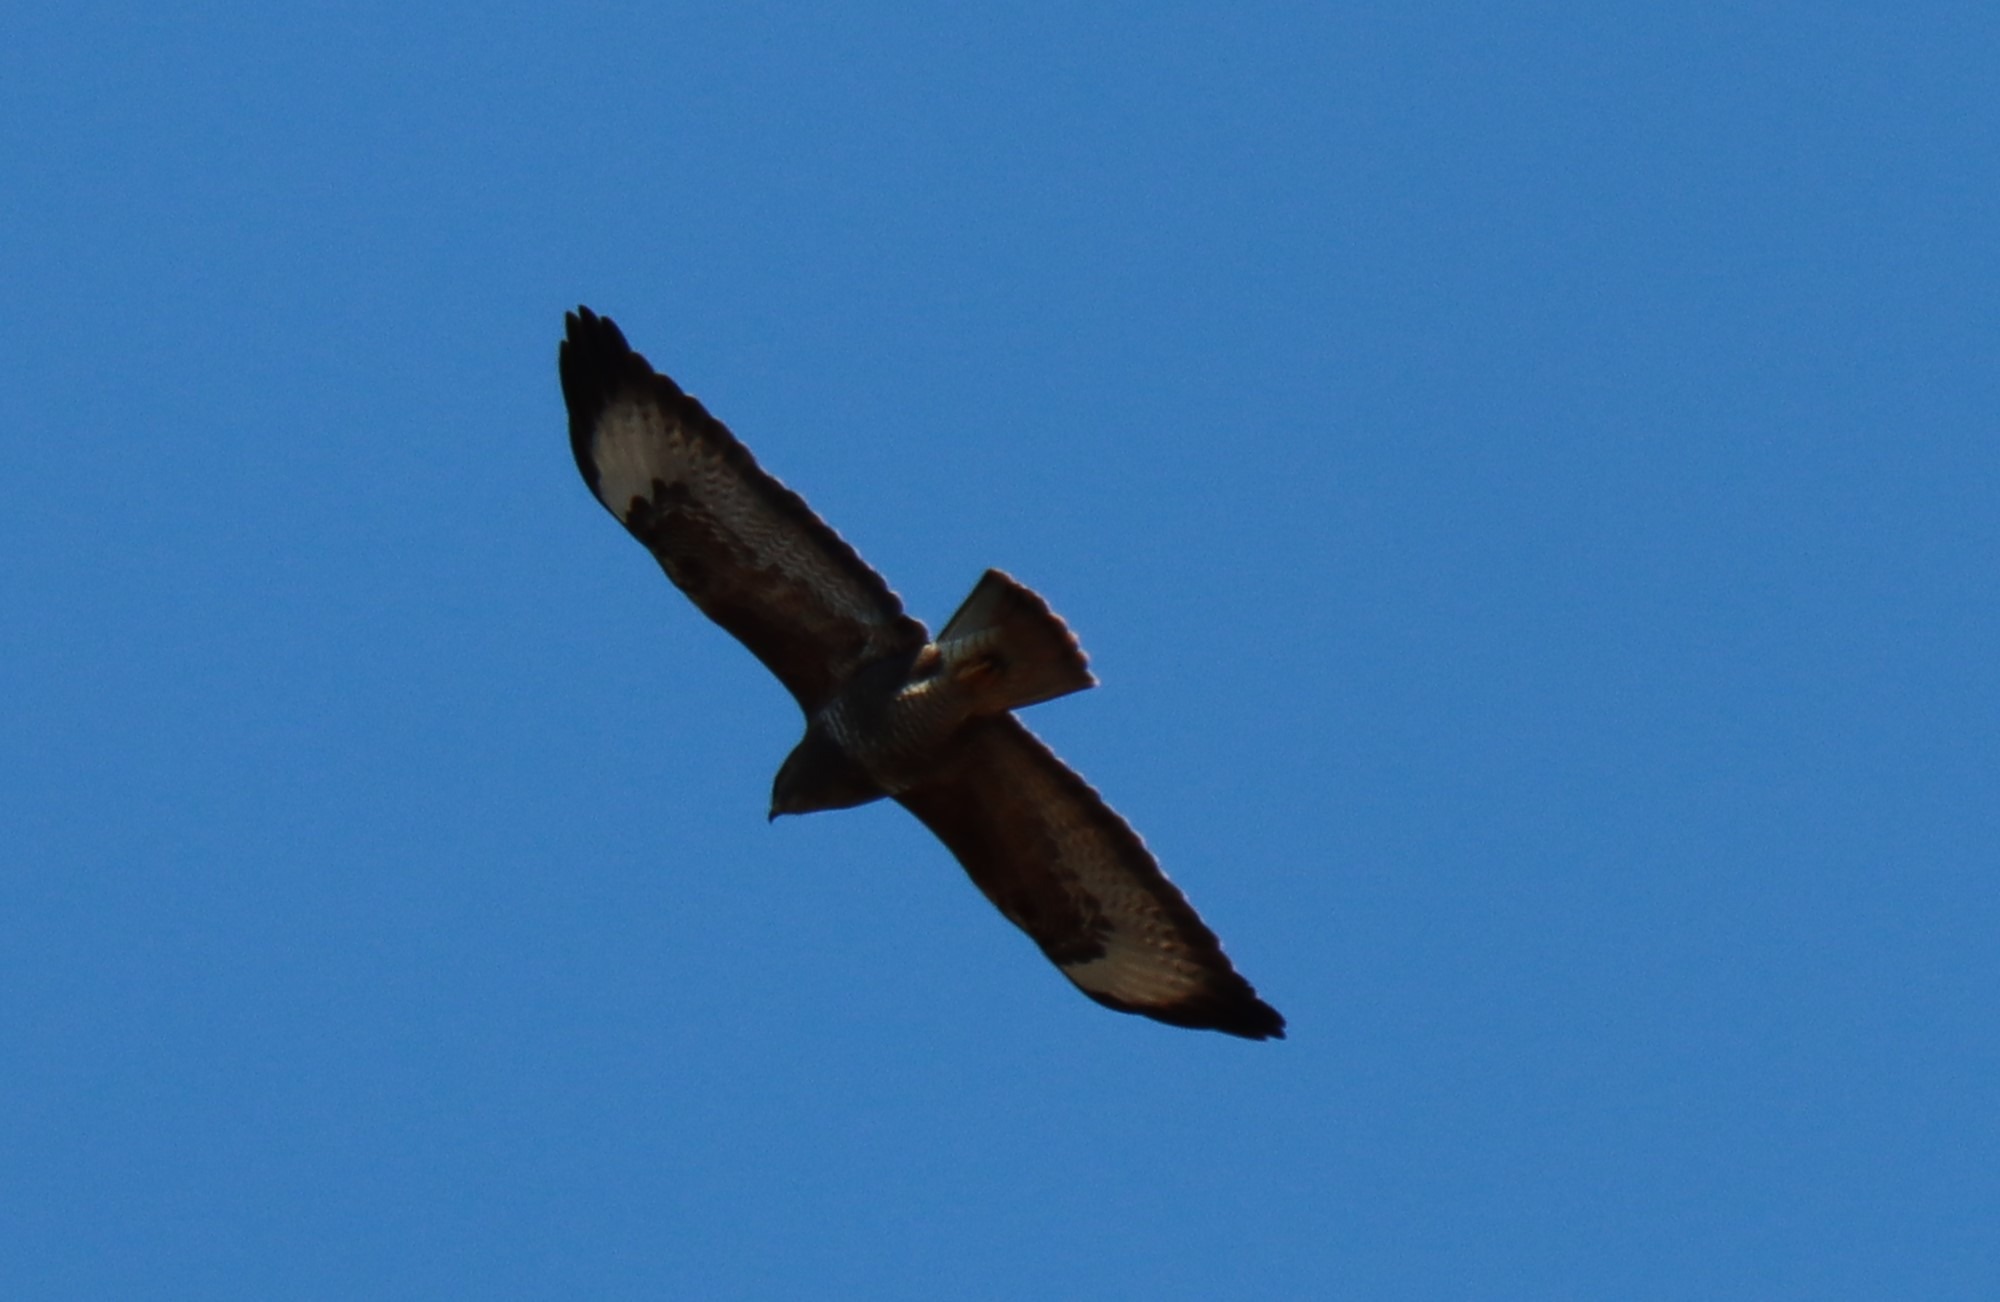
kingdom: Animalia
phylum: Chordata
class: Aves
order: Accipitriformes
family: Accipitridae
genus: Buteo
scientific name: Buteo buteo
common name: Musvåge
